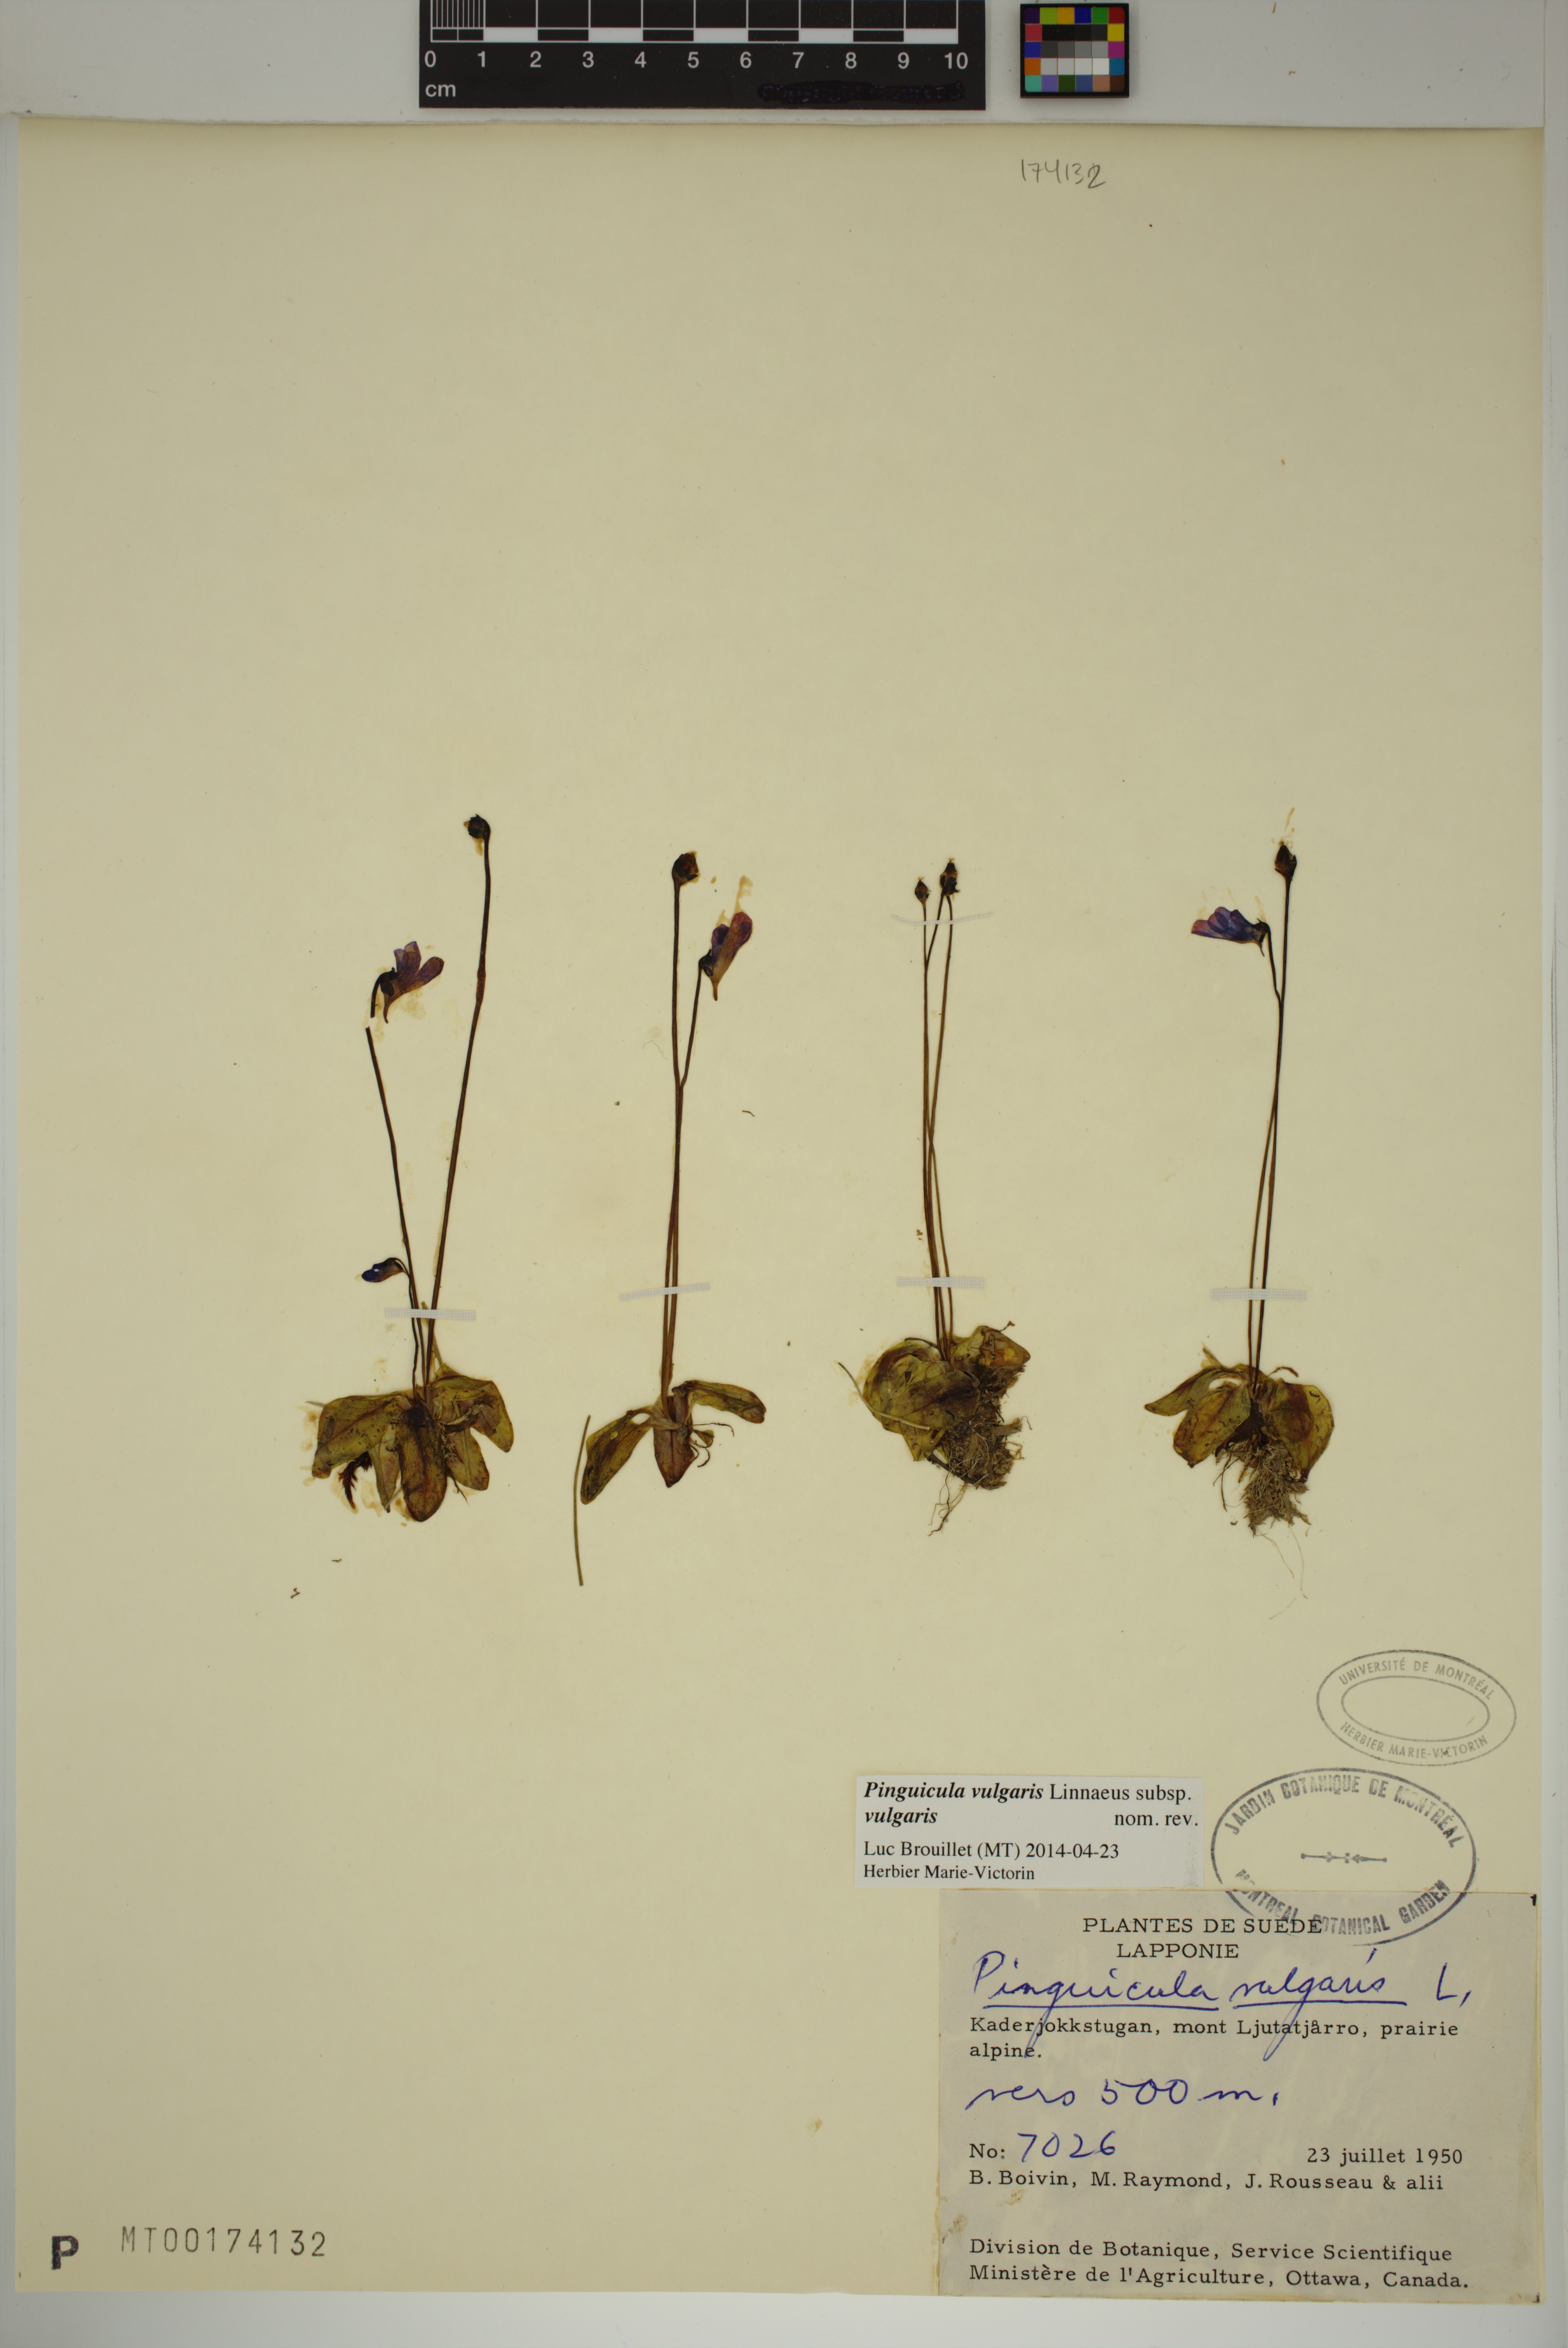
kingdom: Plantae
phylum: Tracheophyta
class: Magnoliopsida
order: Lamiales
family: Lentibulariaceae
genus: Pinguicula
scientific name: Pinguicula vulgaris
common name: Common butterwort
